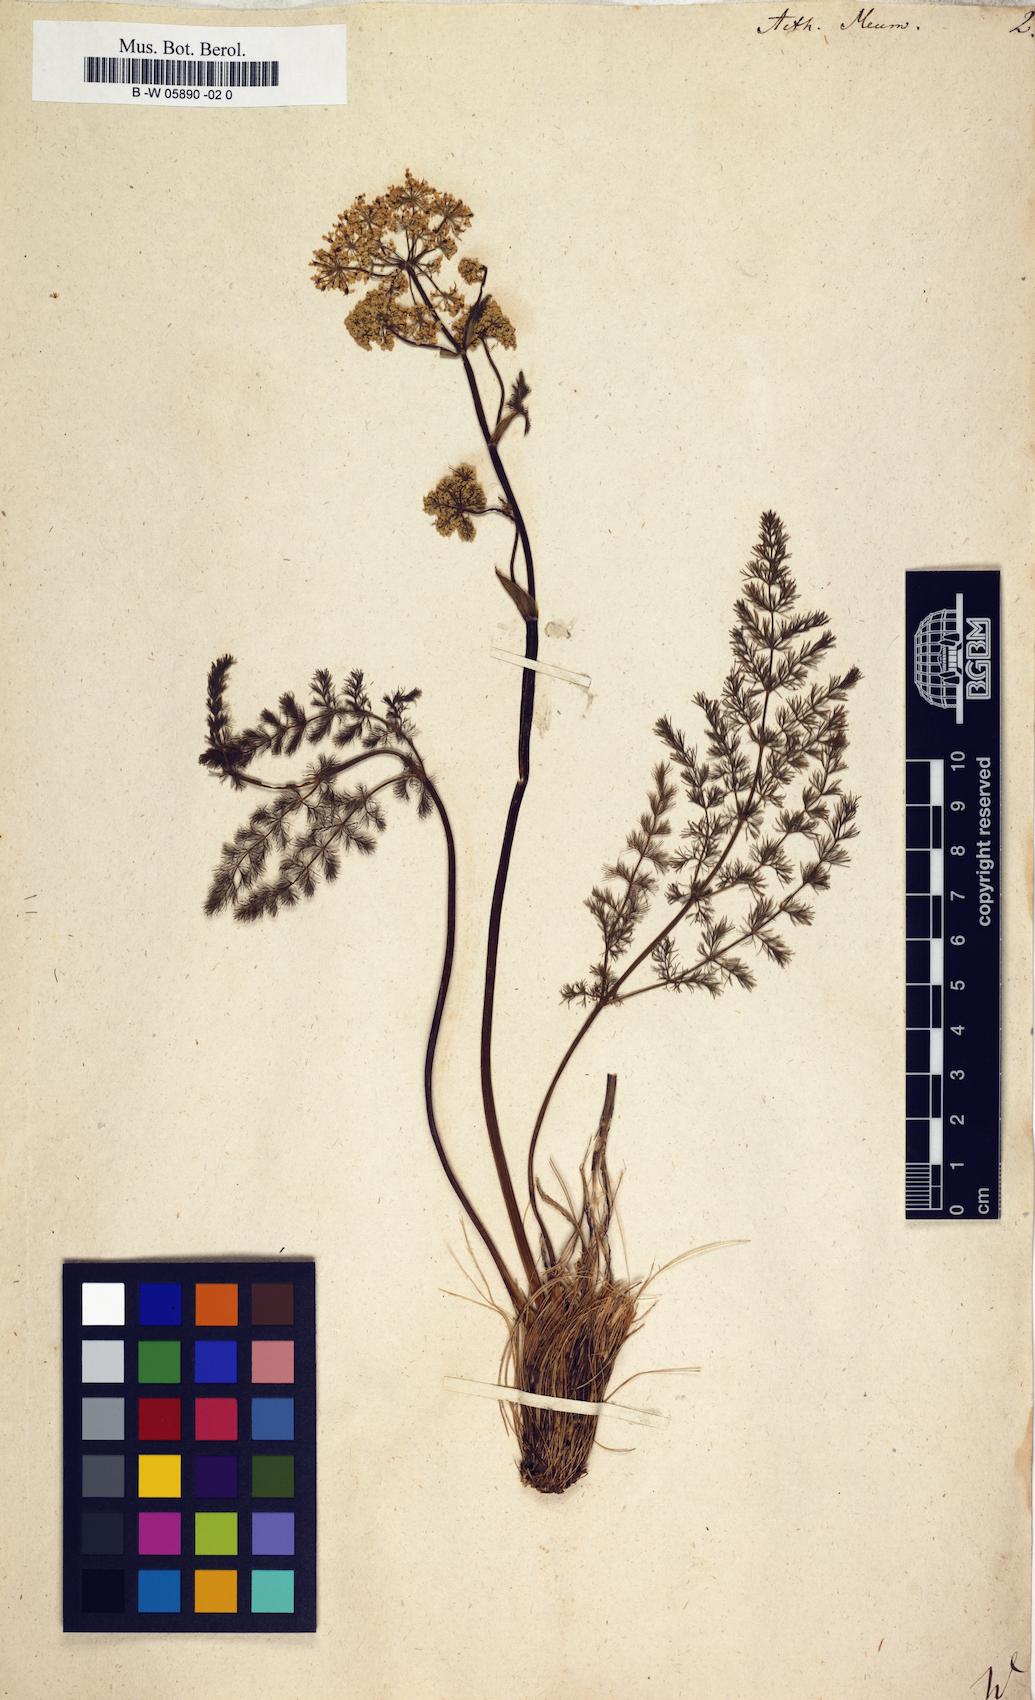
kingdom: Plantae
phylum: Tracheophyta
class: Magnoliopsida
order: Apiales
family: Apiaceae
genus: Meum
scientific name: Meum athamanticum
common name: Spignel
